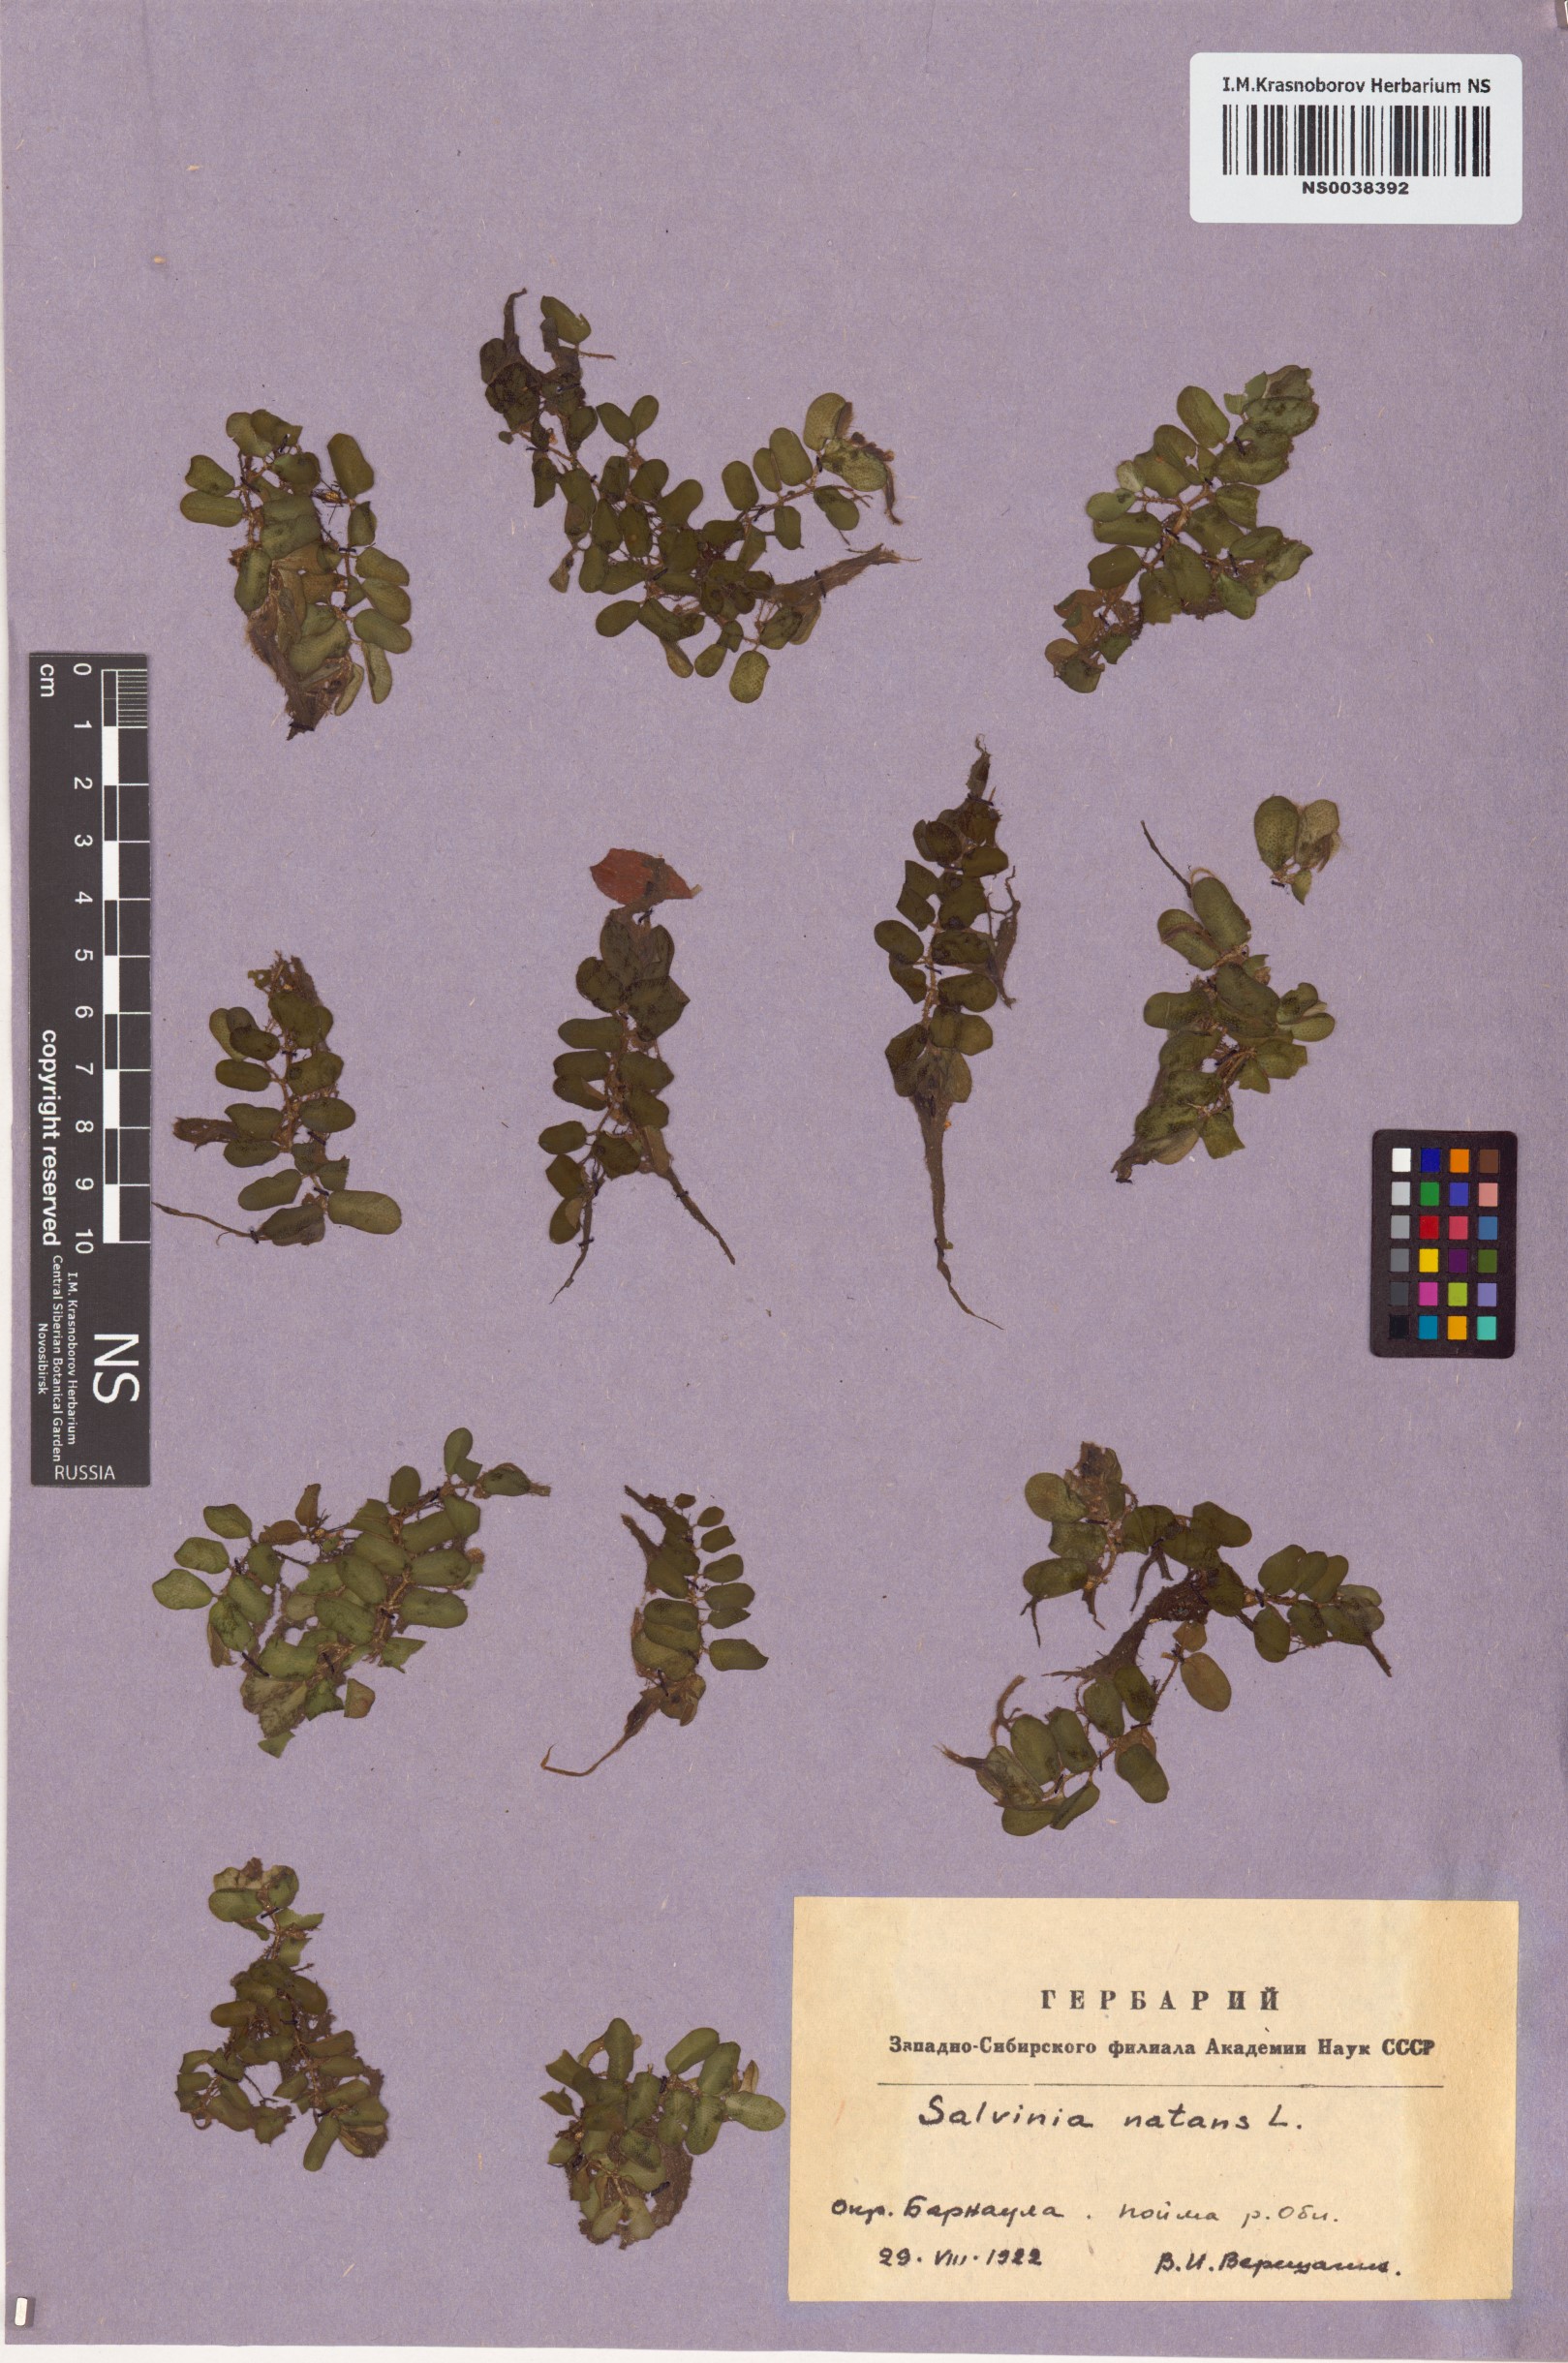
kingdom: Plantae
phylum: Tracheophyta
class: Polypodiopsida
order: Salviniales
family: Salviniaceae
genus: Salvinia
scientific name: Salvinia natans
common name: Floating fern
